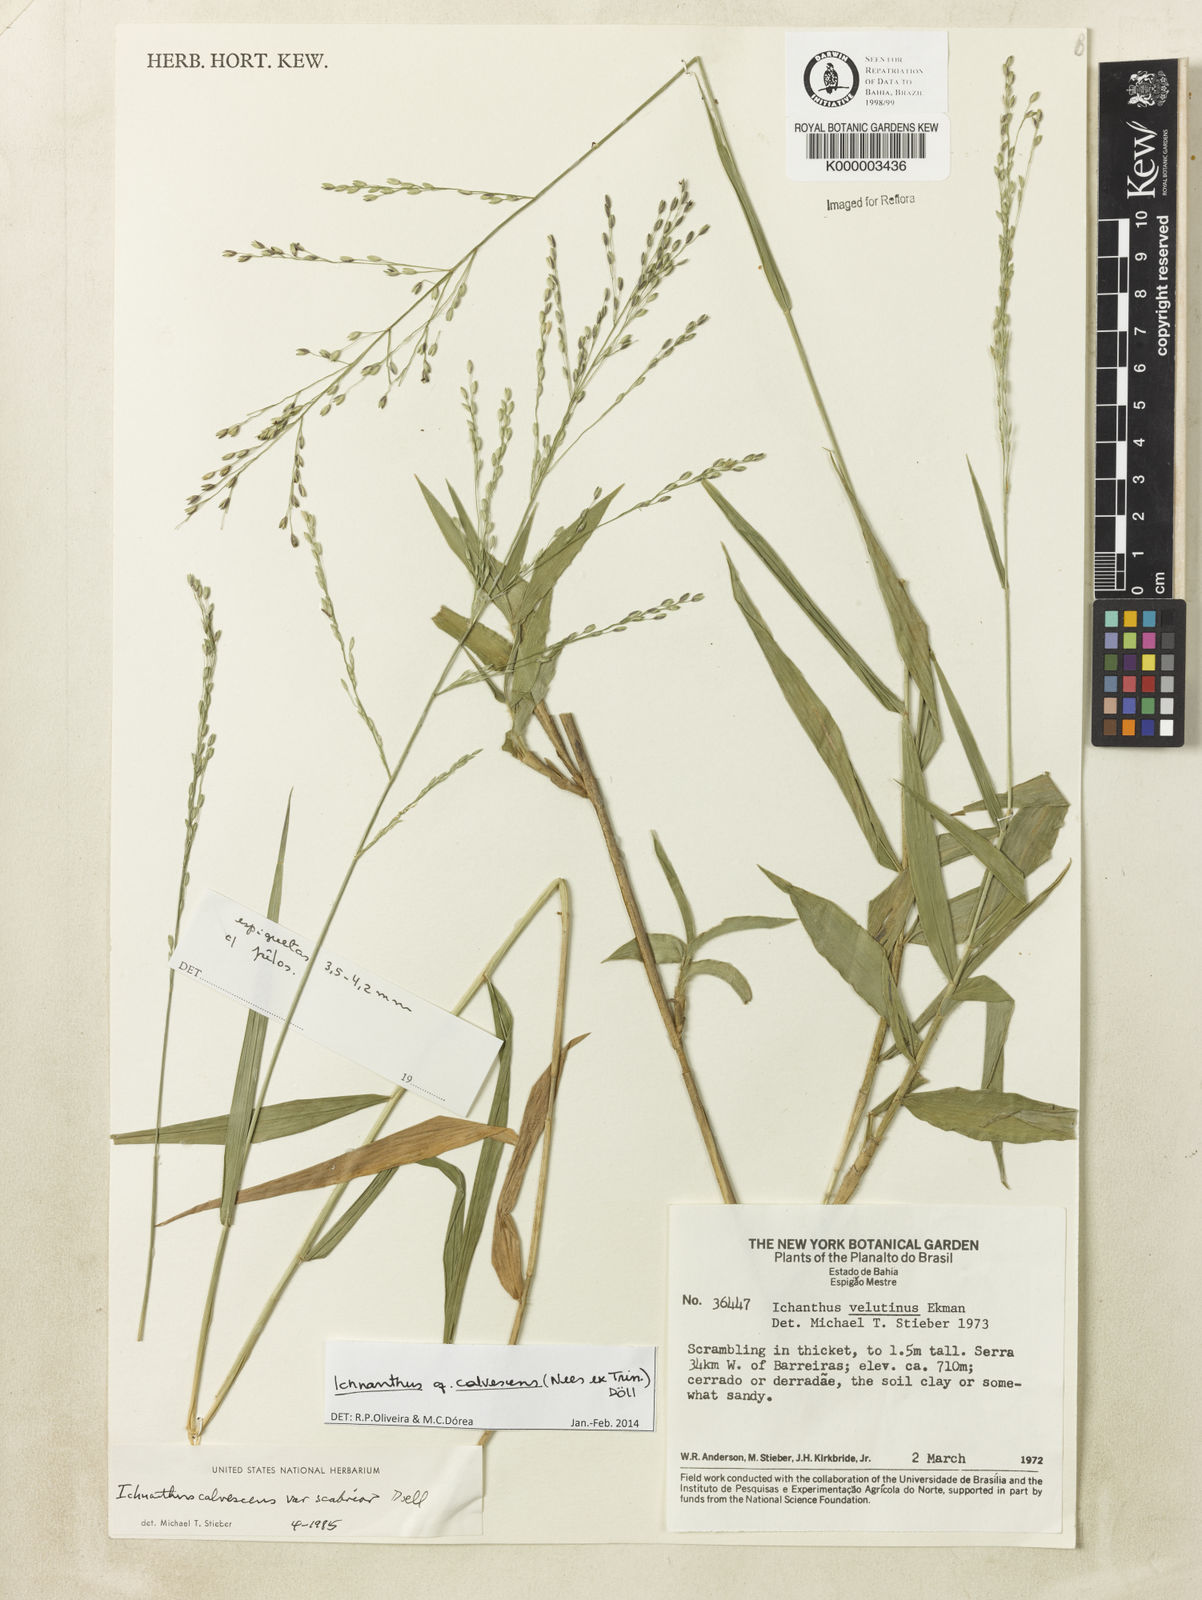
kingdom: Plantae
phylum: Tracheophyta
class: Liliopsida
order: Poales
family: Poaceae
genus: Ichnanthus
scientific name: Ichnanthus
